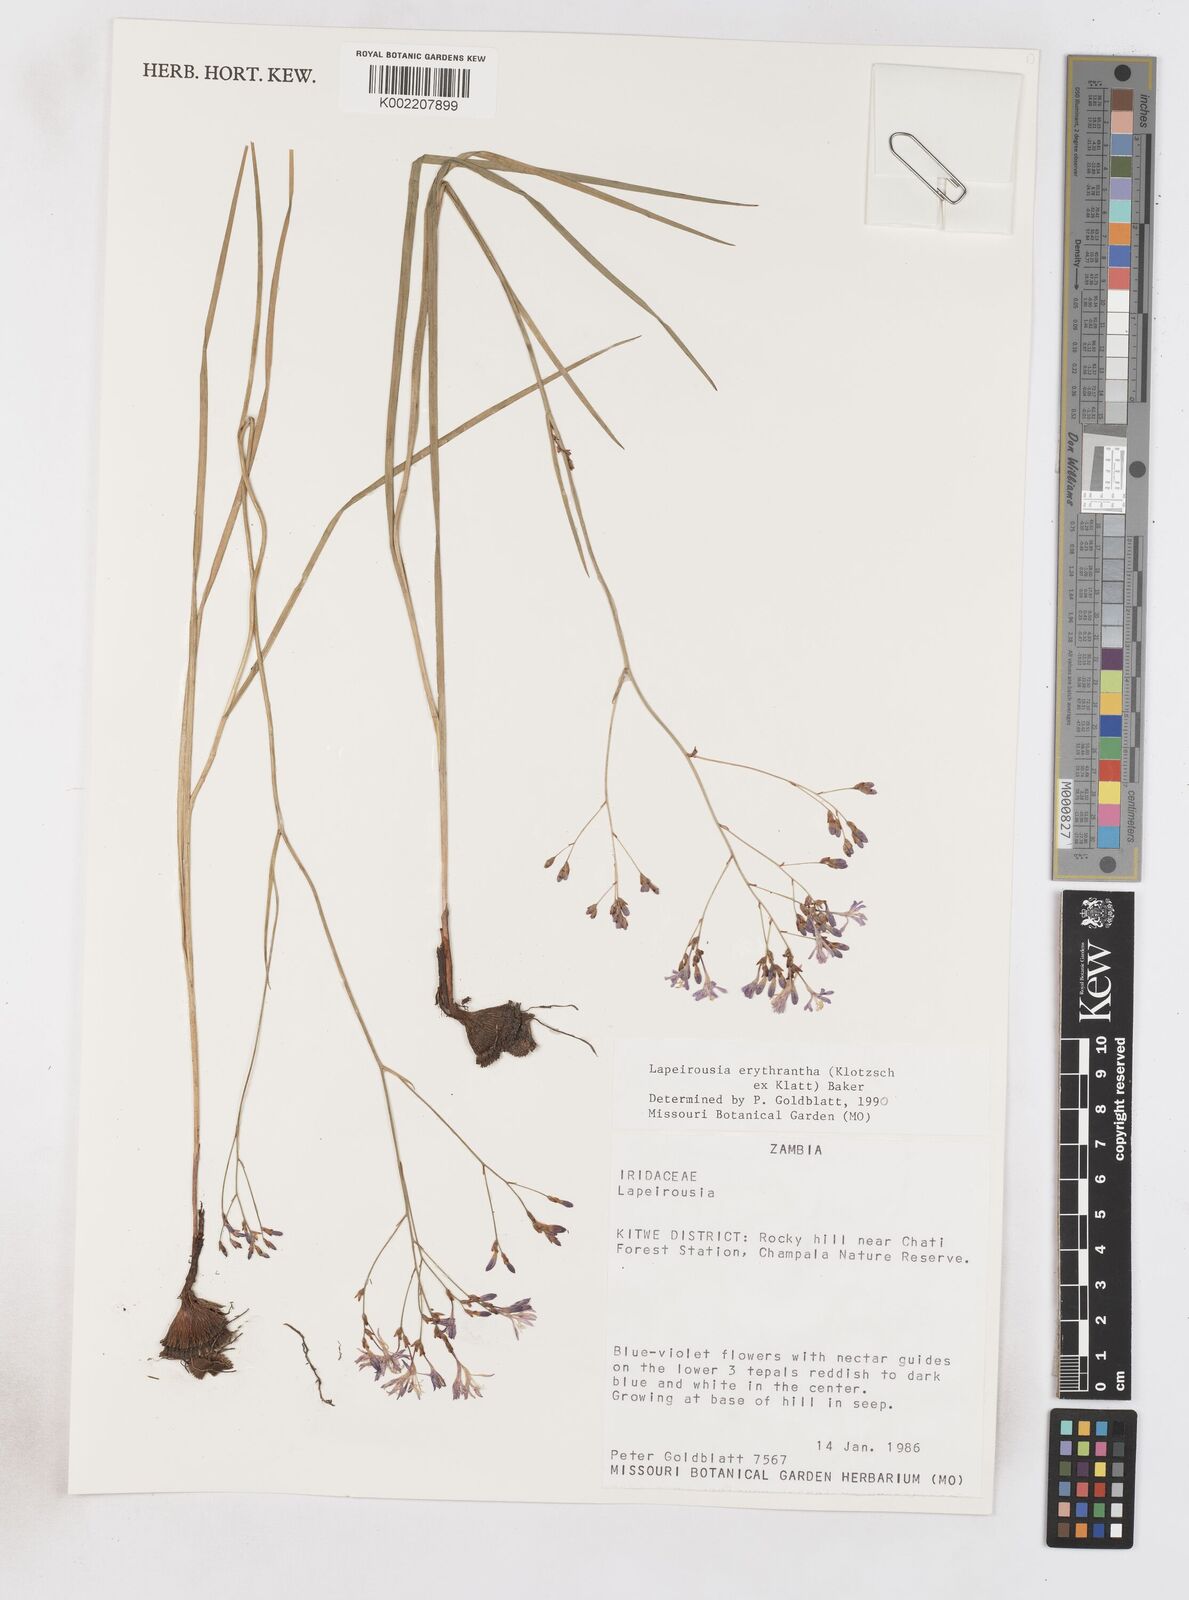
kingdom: Plantae
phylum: Tracheophyta
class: Liliopsida
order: Asparagales
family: Iridaceae
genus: Afrosolen
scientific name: Afrosolen erythranthus
